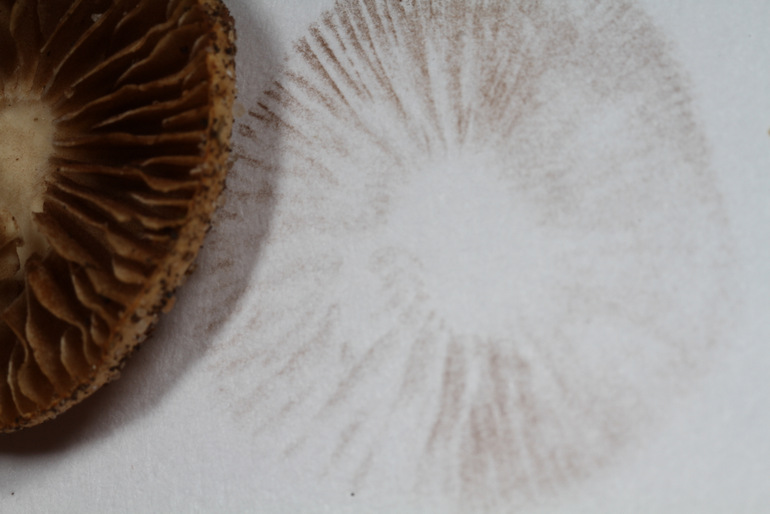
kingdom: Fungi
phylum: Basidiomycota
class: Agaricomycetes
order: Agaricales
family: Strophariaceae
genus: Agrocybe
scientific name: Agrocybe pediades
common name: almindelig agerhat
